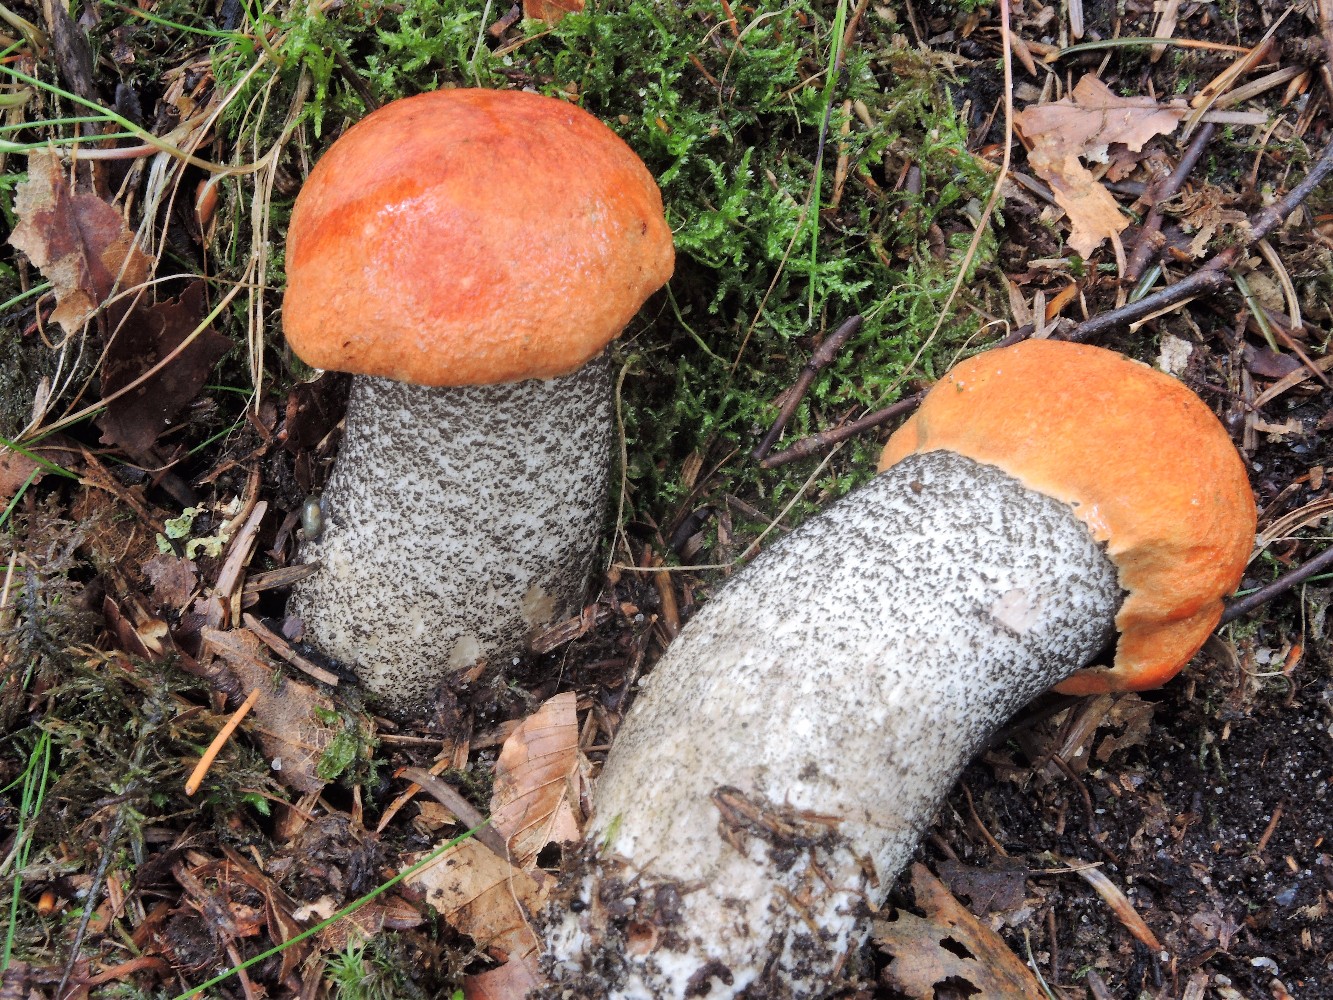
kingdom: Fungi
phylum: Basidiomycota
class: Agaricomycetes
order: Boletales
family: Boletaceae
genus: Leccinum
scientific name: Leccinum versipelle
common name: orange skælrørhat
